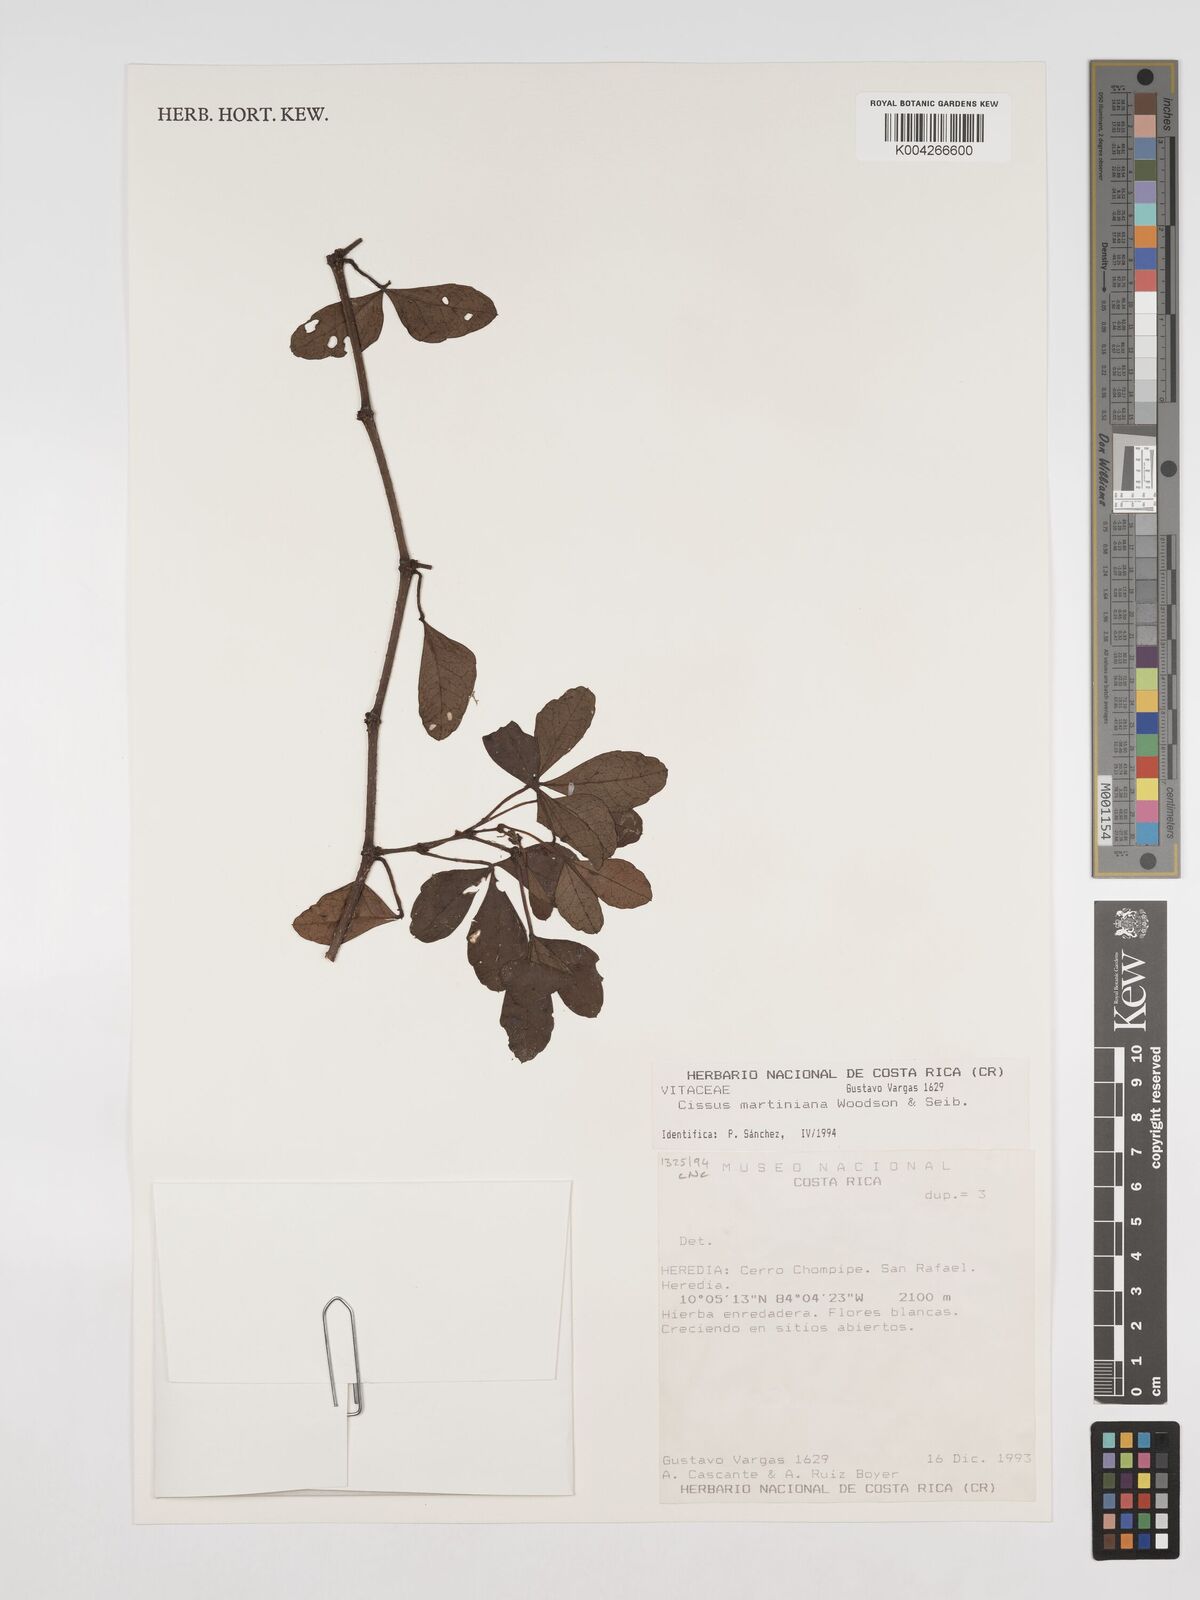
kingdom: Plantae
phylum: Tracheophyta
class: Magnoliopsida
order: Vitales
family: Vitaceae
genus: Cissus
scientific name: Cissus trianae
